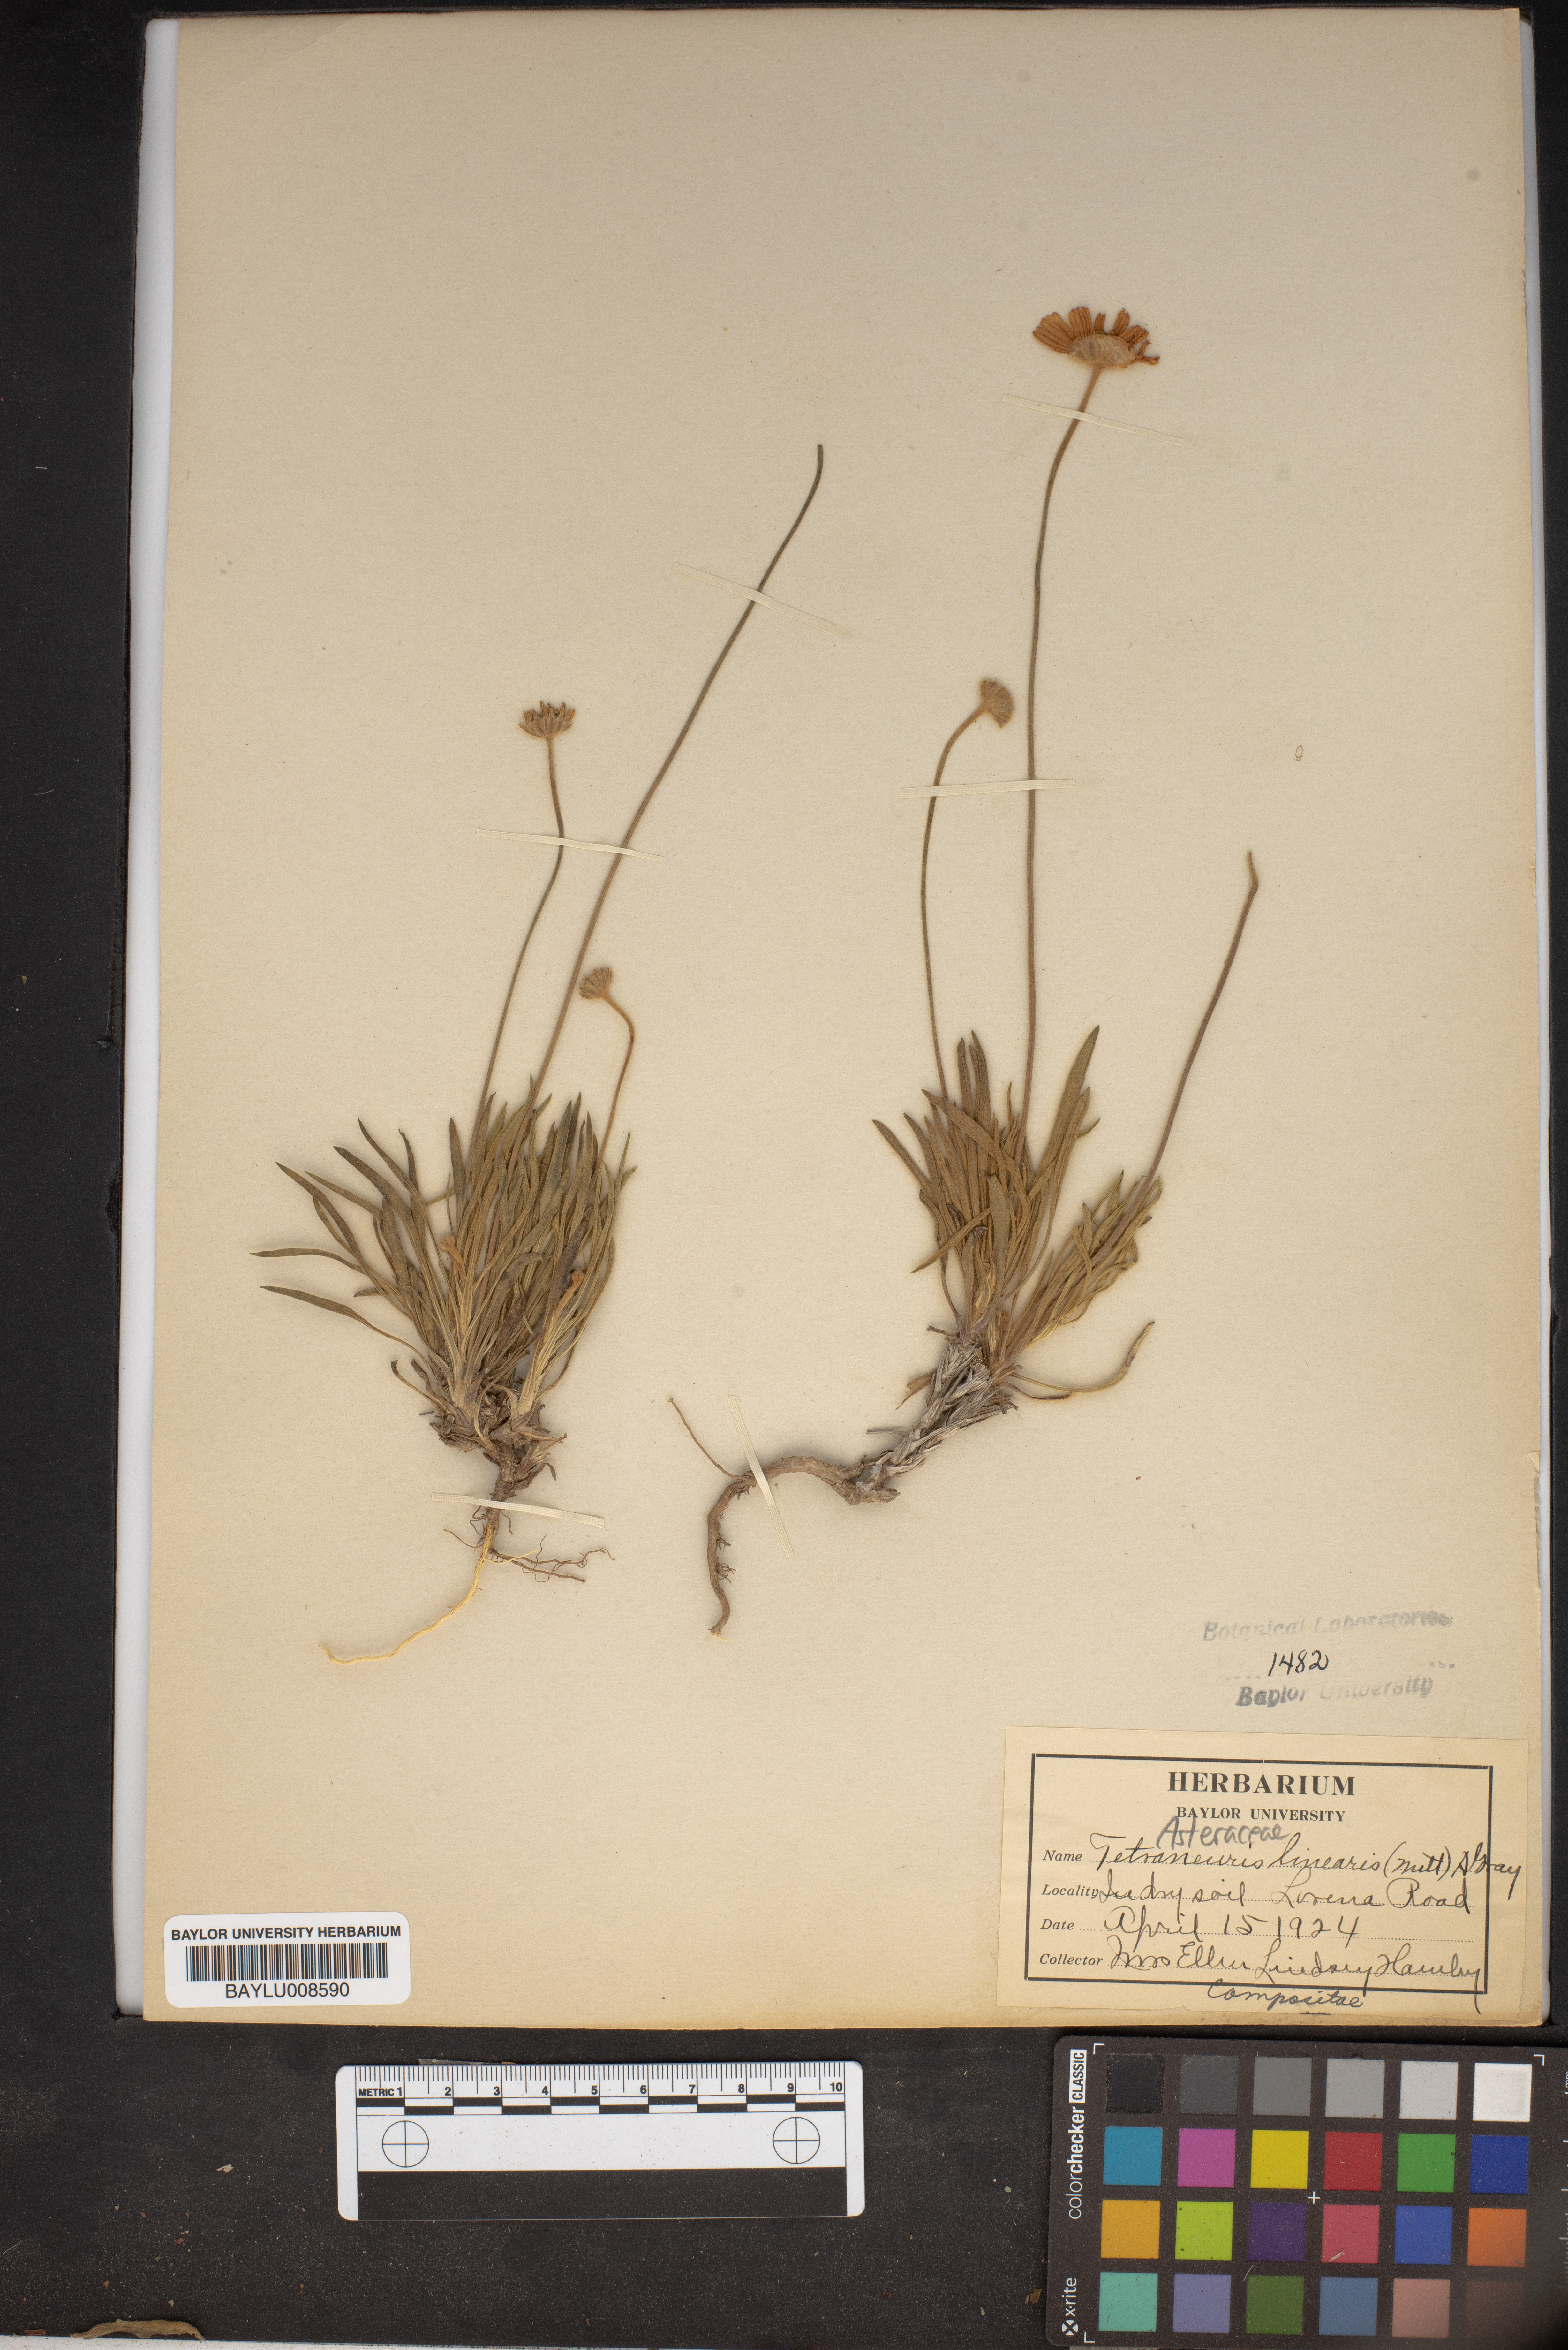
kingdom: Plantae
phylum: Tracheophyta
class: Magnoliopsida
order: Asterales
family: Asteraceae
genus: Tetraneuris
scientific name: Tetraneuris scaposa
